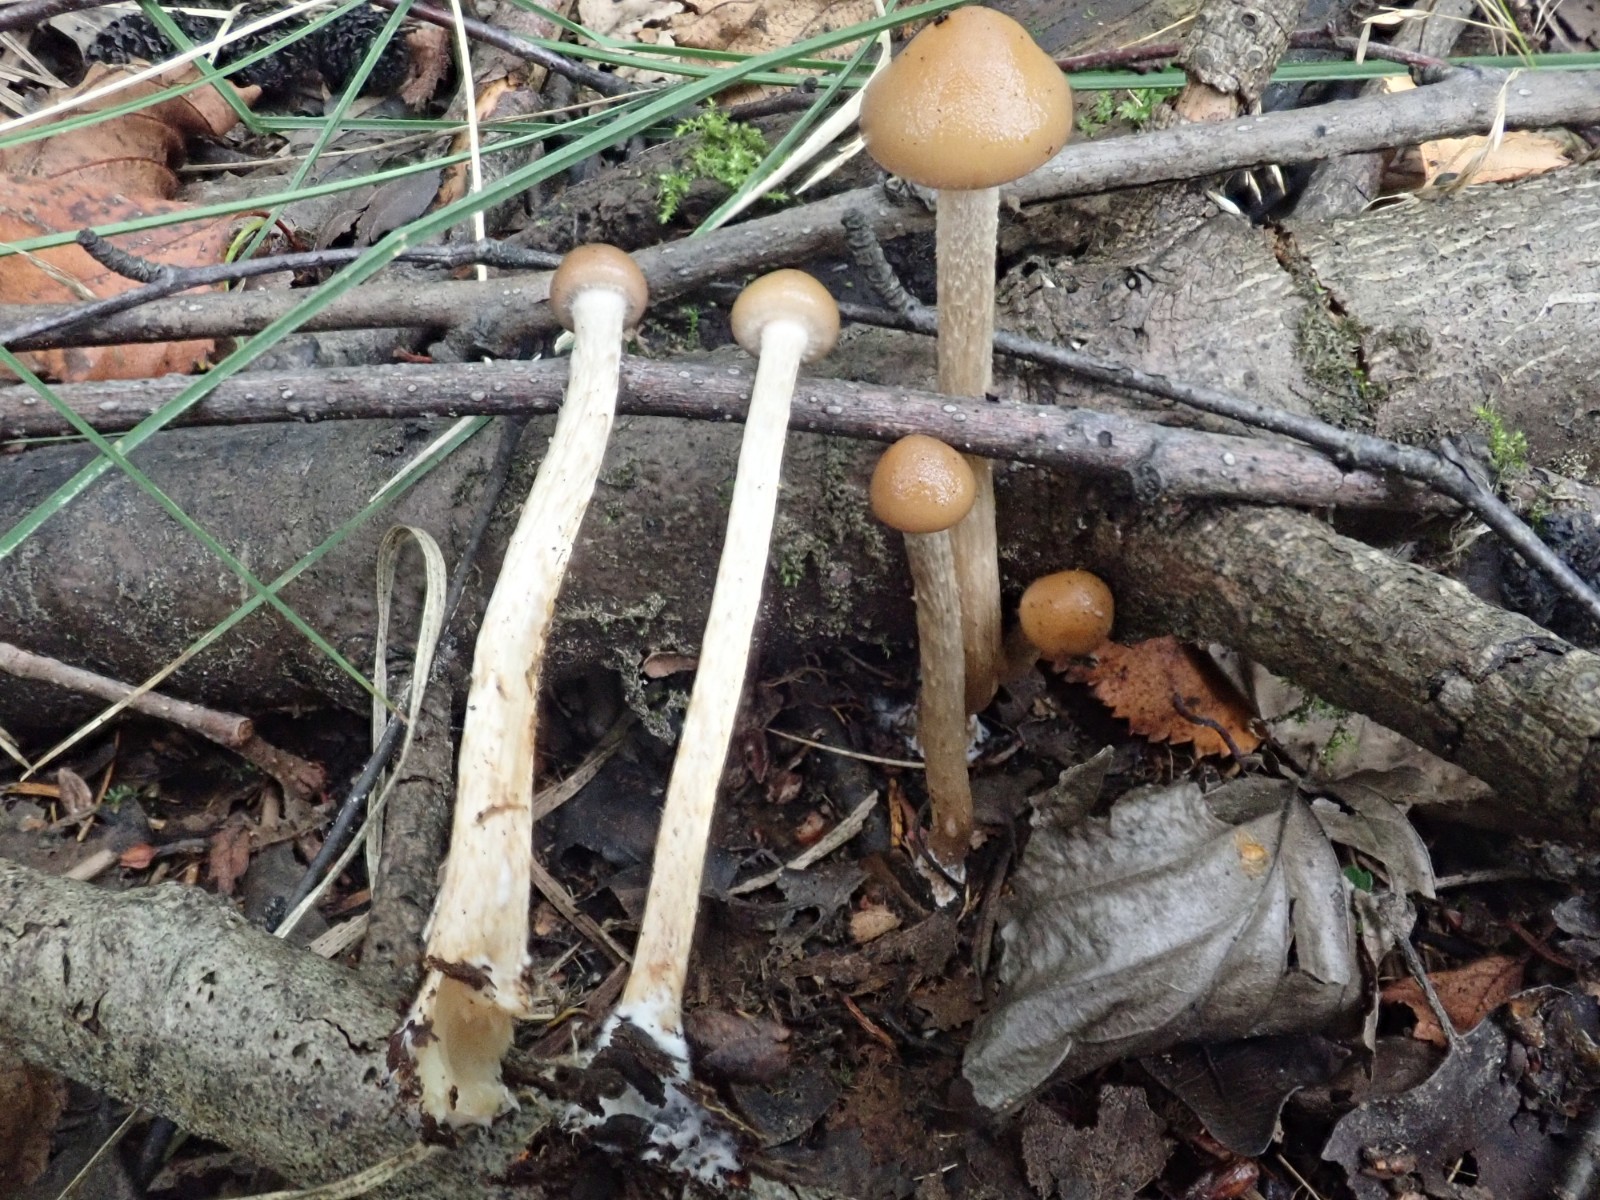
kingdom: Fungi
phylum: Basidiomycota
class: Agaricomycetes
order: Agaricales
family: Strophariaceae
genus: Hypholoma
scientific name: Hypholoma myosotis
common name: slimet svovlhat
